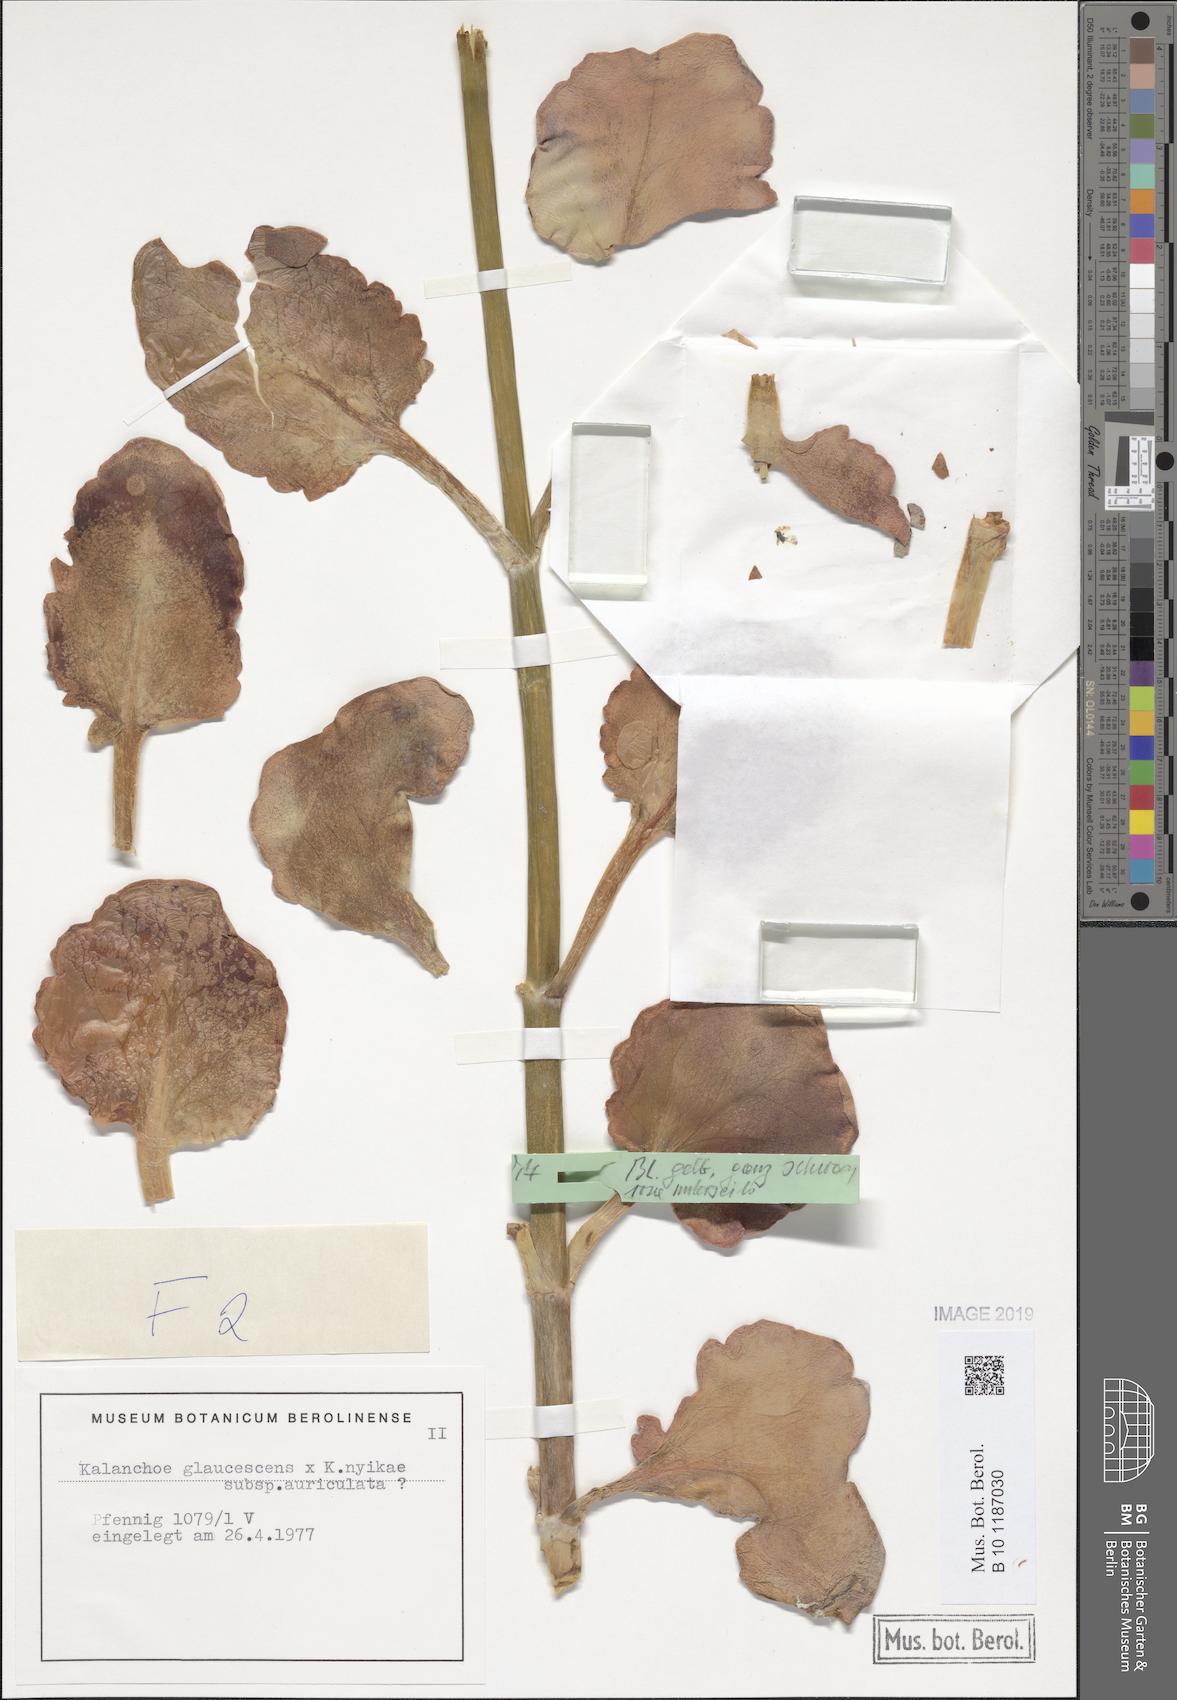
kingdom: Plantae
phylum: Tracheophyta
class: Magnoliopsida
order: Saxifragales
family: Crassulaceae
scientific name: Crassulaceae
